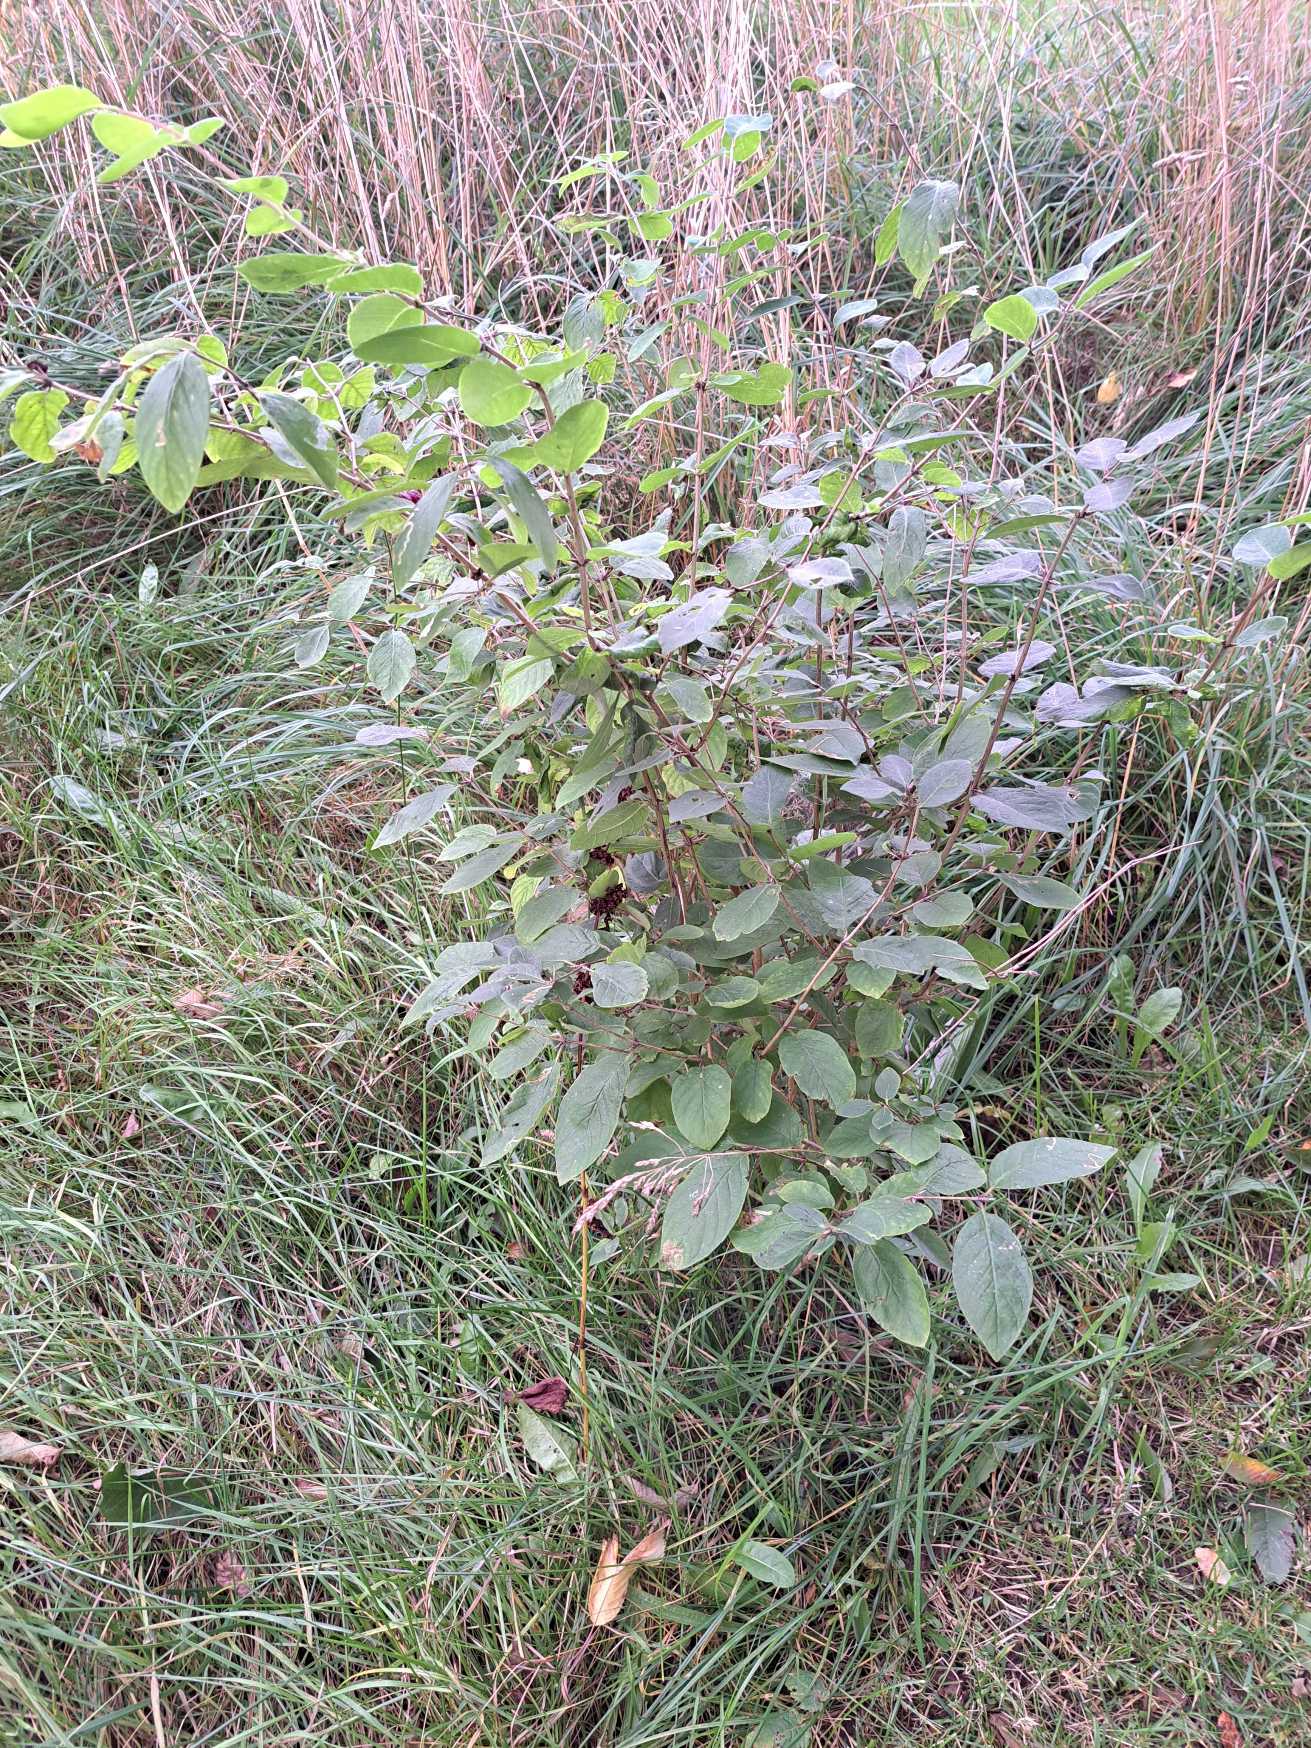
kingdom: Plantae
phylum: Tracheophyta
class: Magnoliopsida
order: Dipsacales
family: Caprifoliaceae
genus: Lonicera
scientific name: Lonicera xylosteum
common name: Dunet gedeblad
